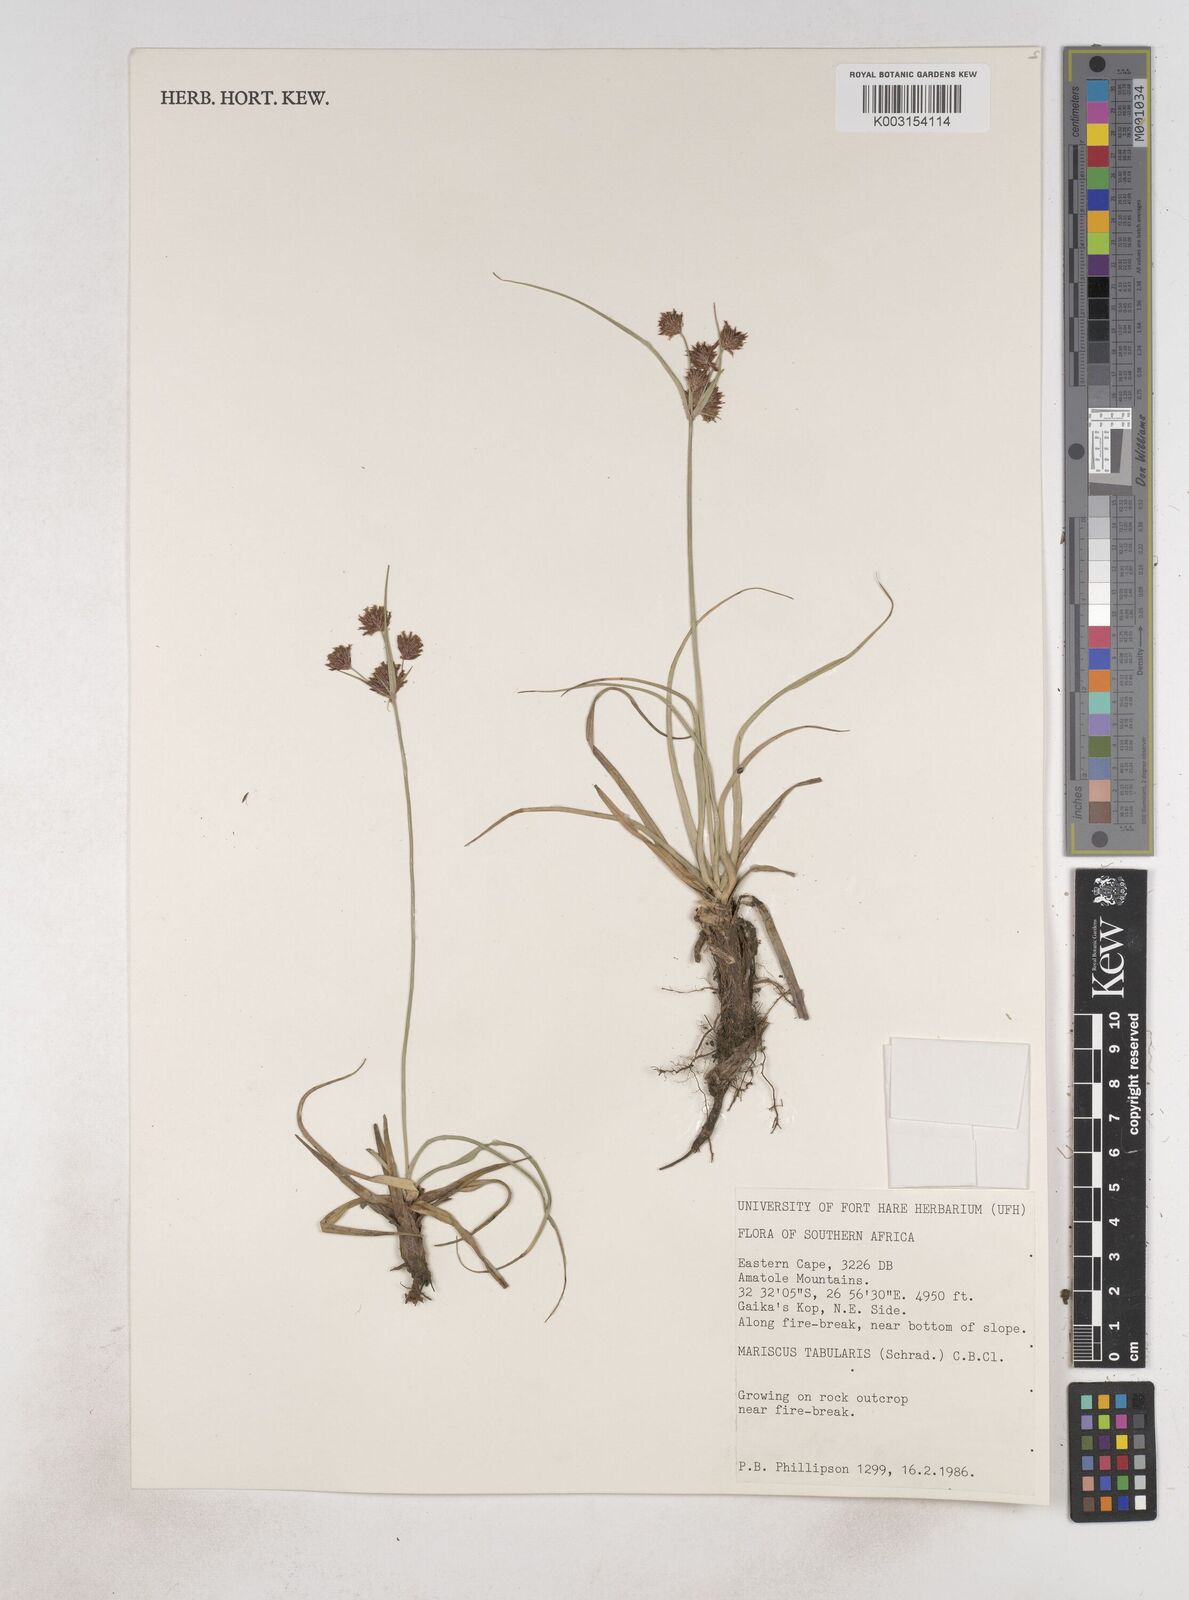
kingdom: Plantae
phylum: Tracheophyta
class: Liliopsida
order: Poales
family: Cyperaceae
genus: Cyperus
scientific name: Cyperus tabularis
